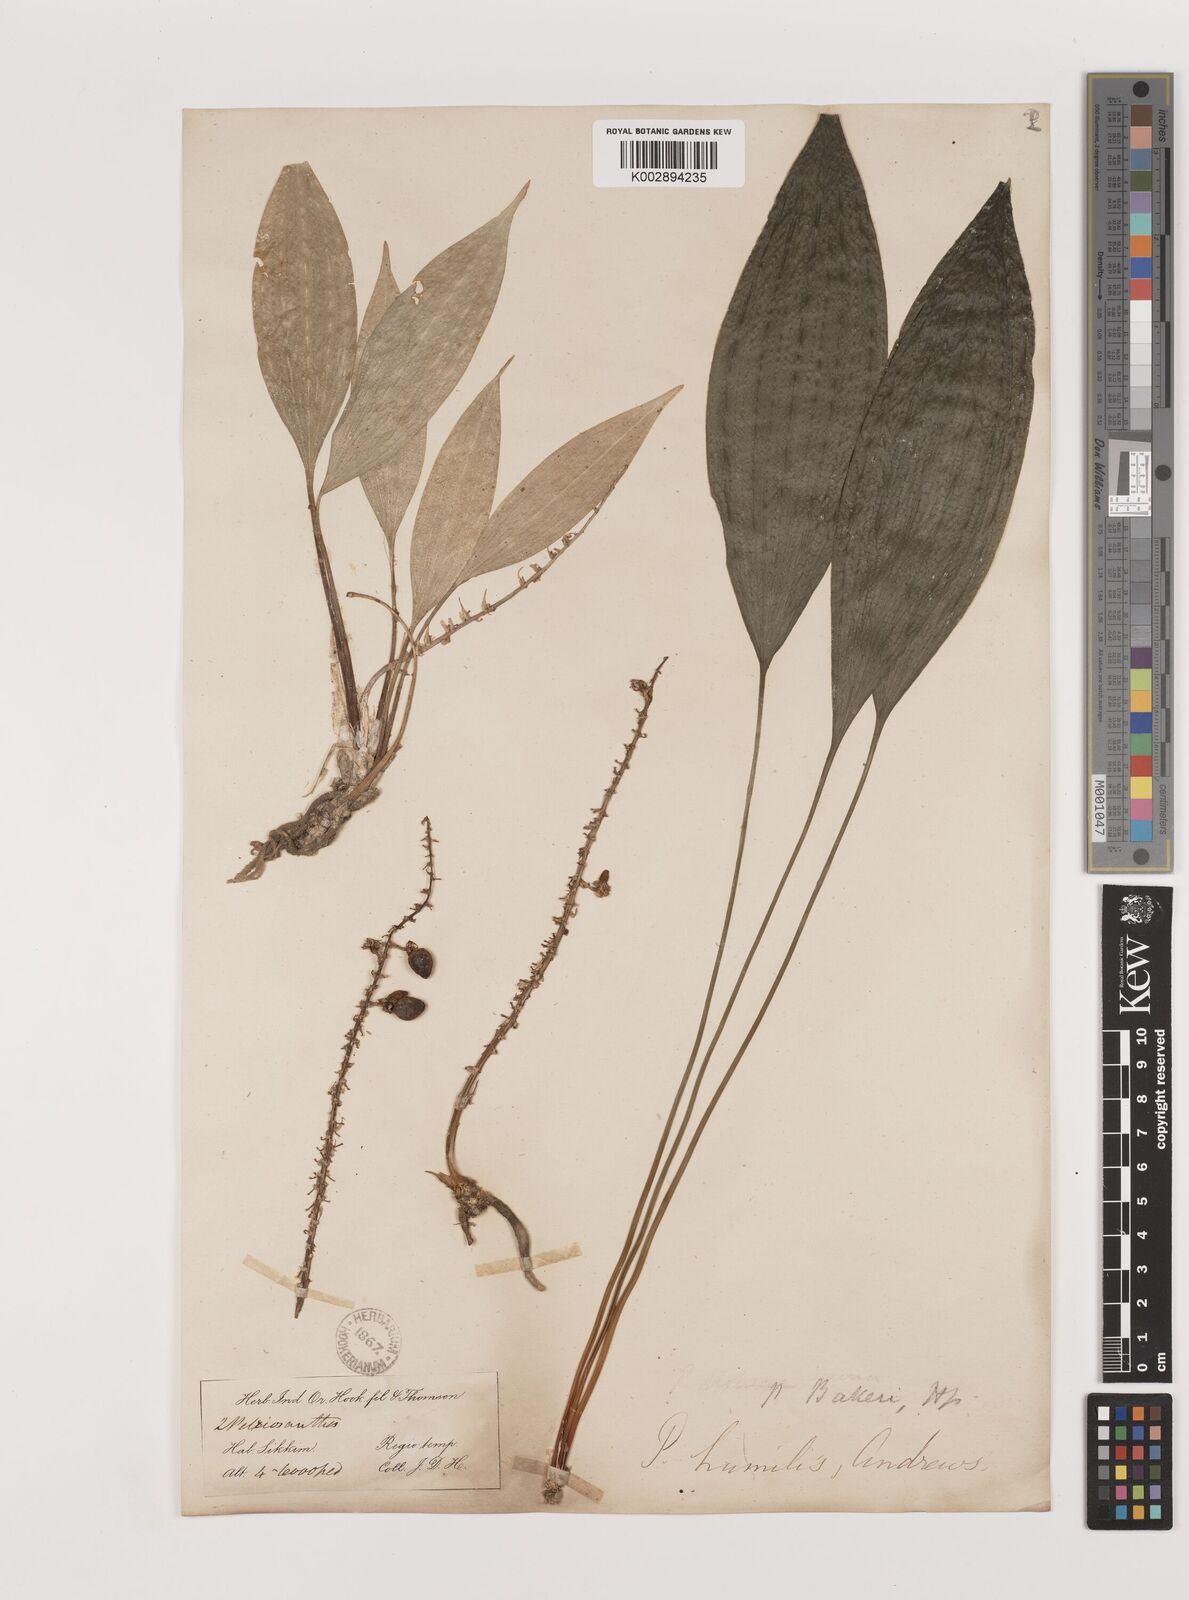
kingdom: Plantae
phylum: Tracheophyta
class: Liliopsida
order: Asparagales
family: Asparagaceae
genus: Peliosanthes
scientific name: Peliosanthes teta
